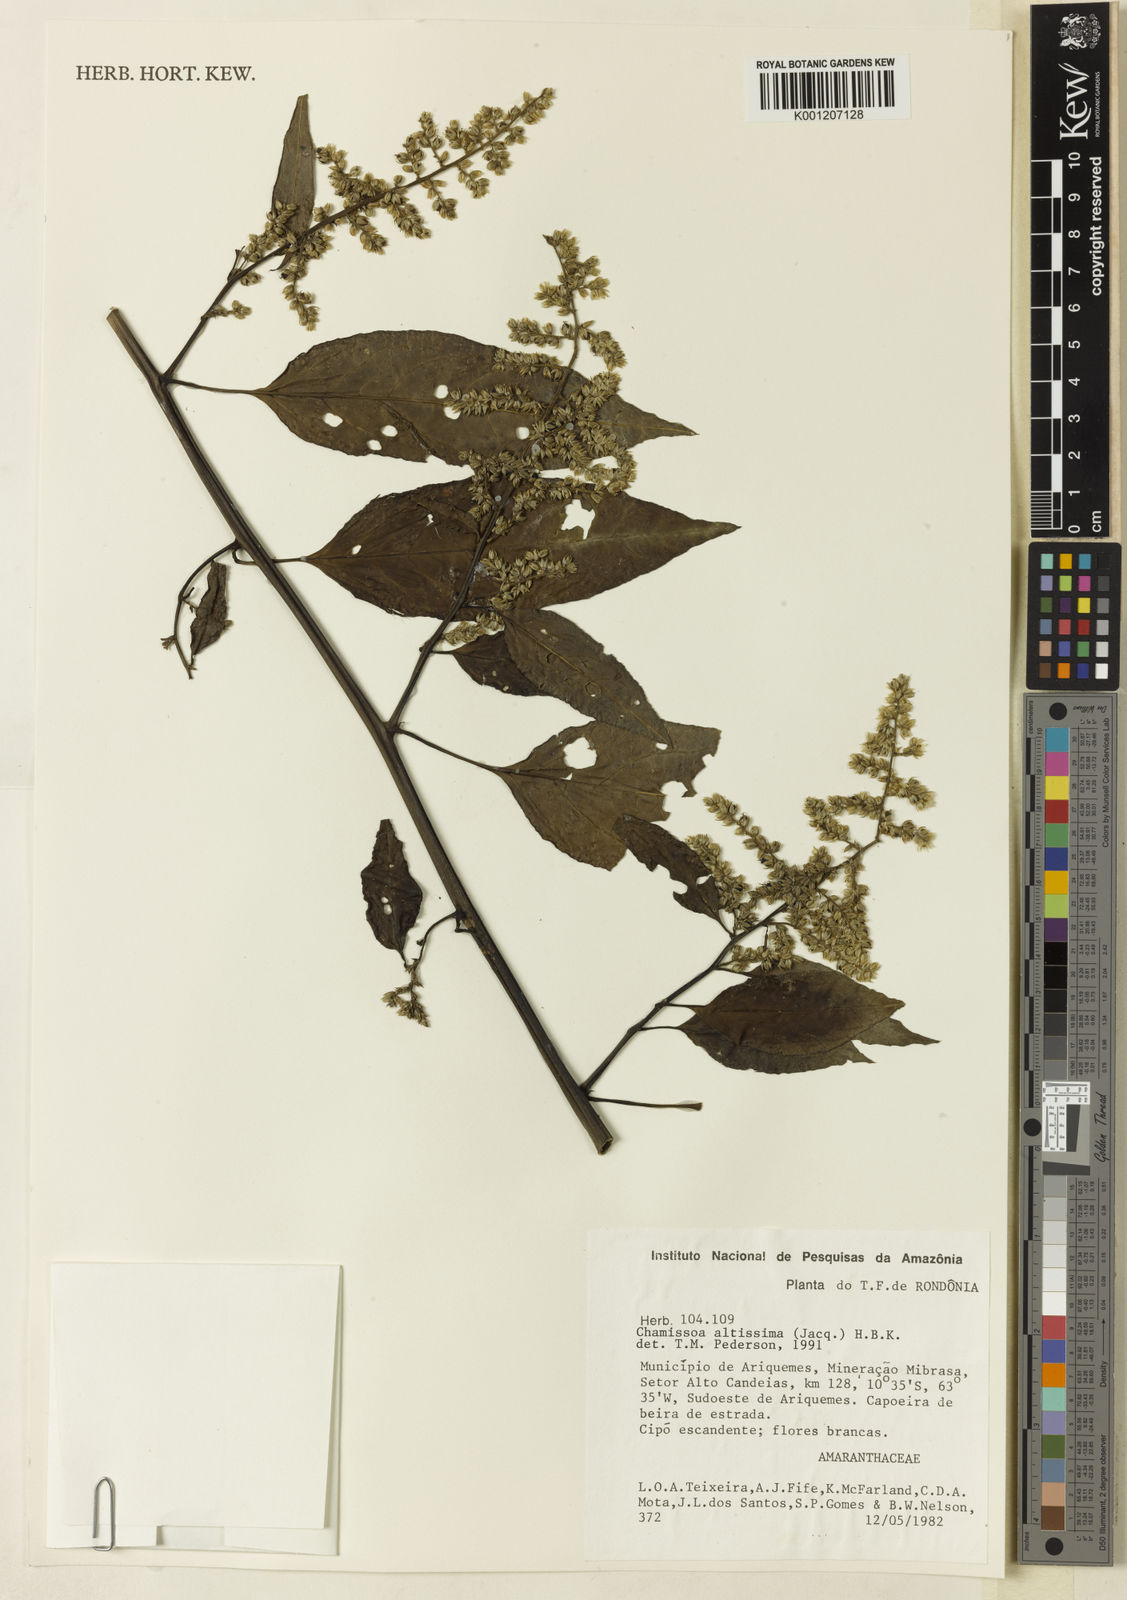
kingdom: Plantae
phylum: Tracheophyta
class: Magnoliopsida
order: Caryophyllales
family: Amaranthaceae
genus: Chamissoa
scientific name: Chamissoa altissima
